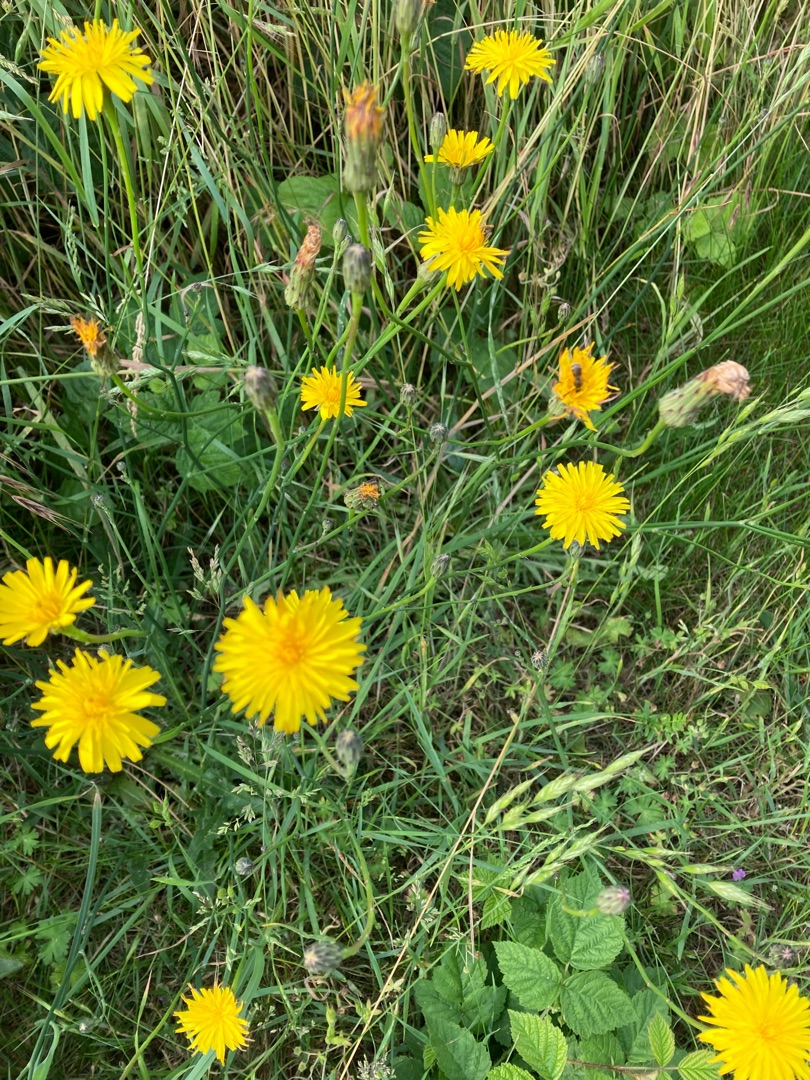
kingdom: Plantae
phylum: Tracheophyta
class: Magnoliopsida
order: Asterales
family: Asteraceae
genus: Hypochaeris
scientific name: Hypochaeris radicata
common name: Almindelig kongepen
